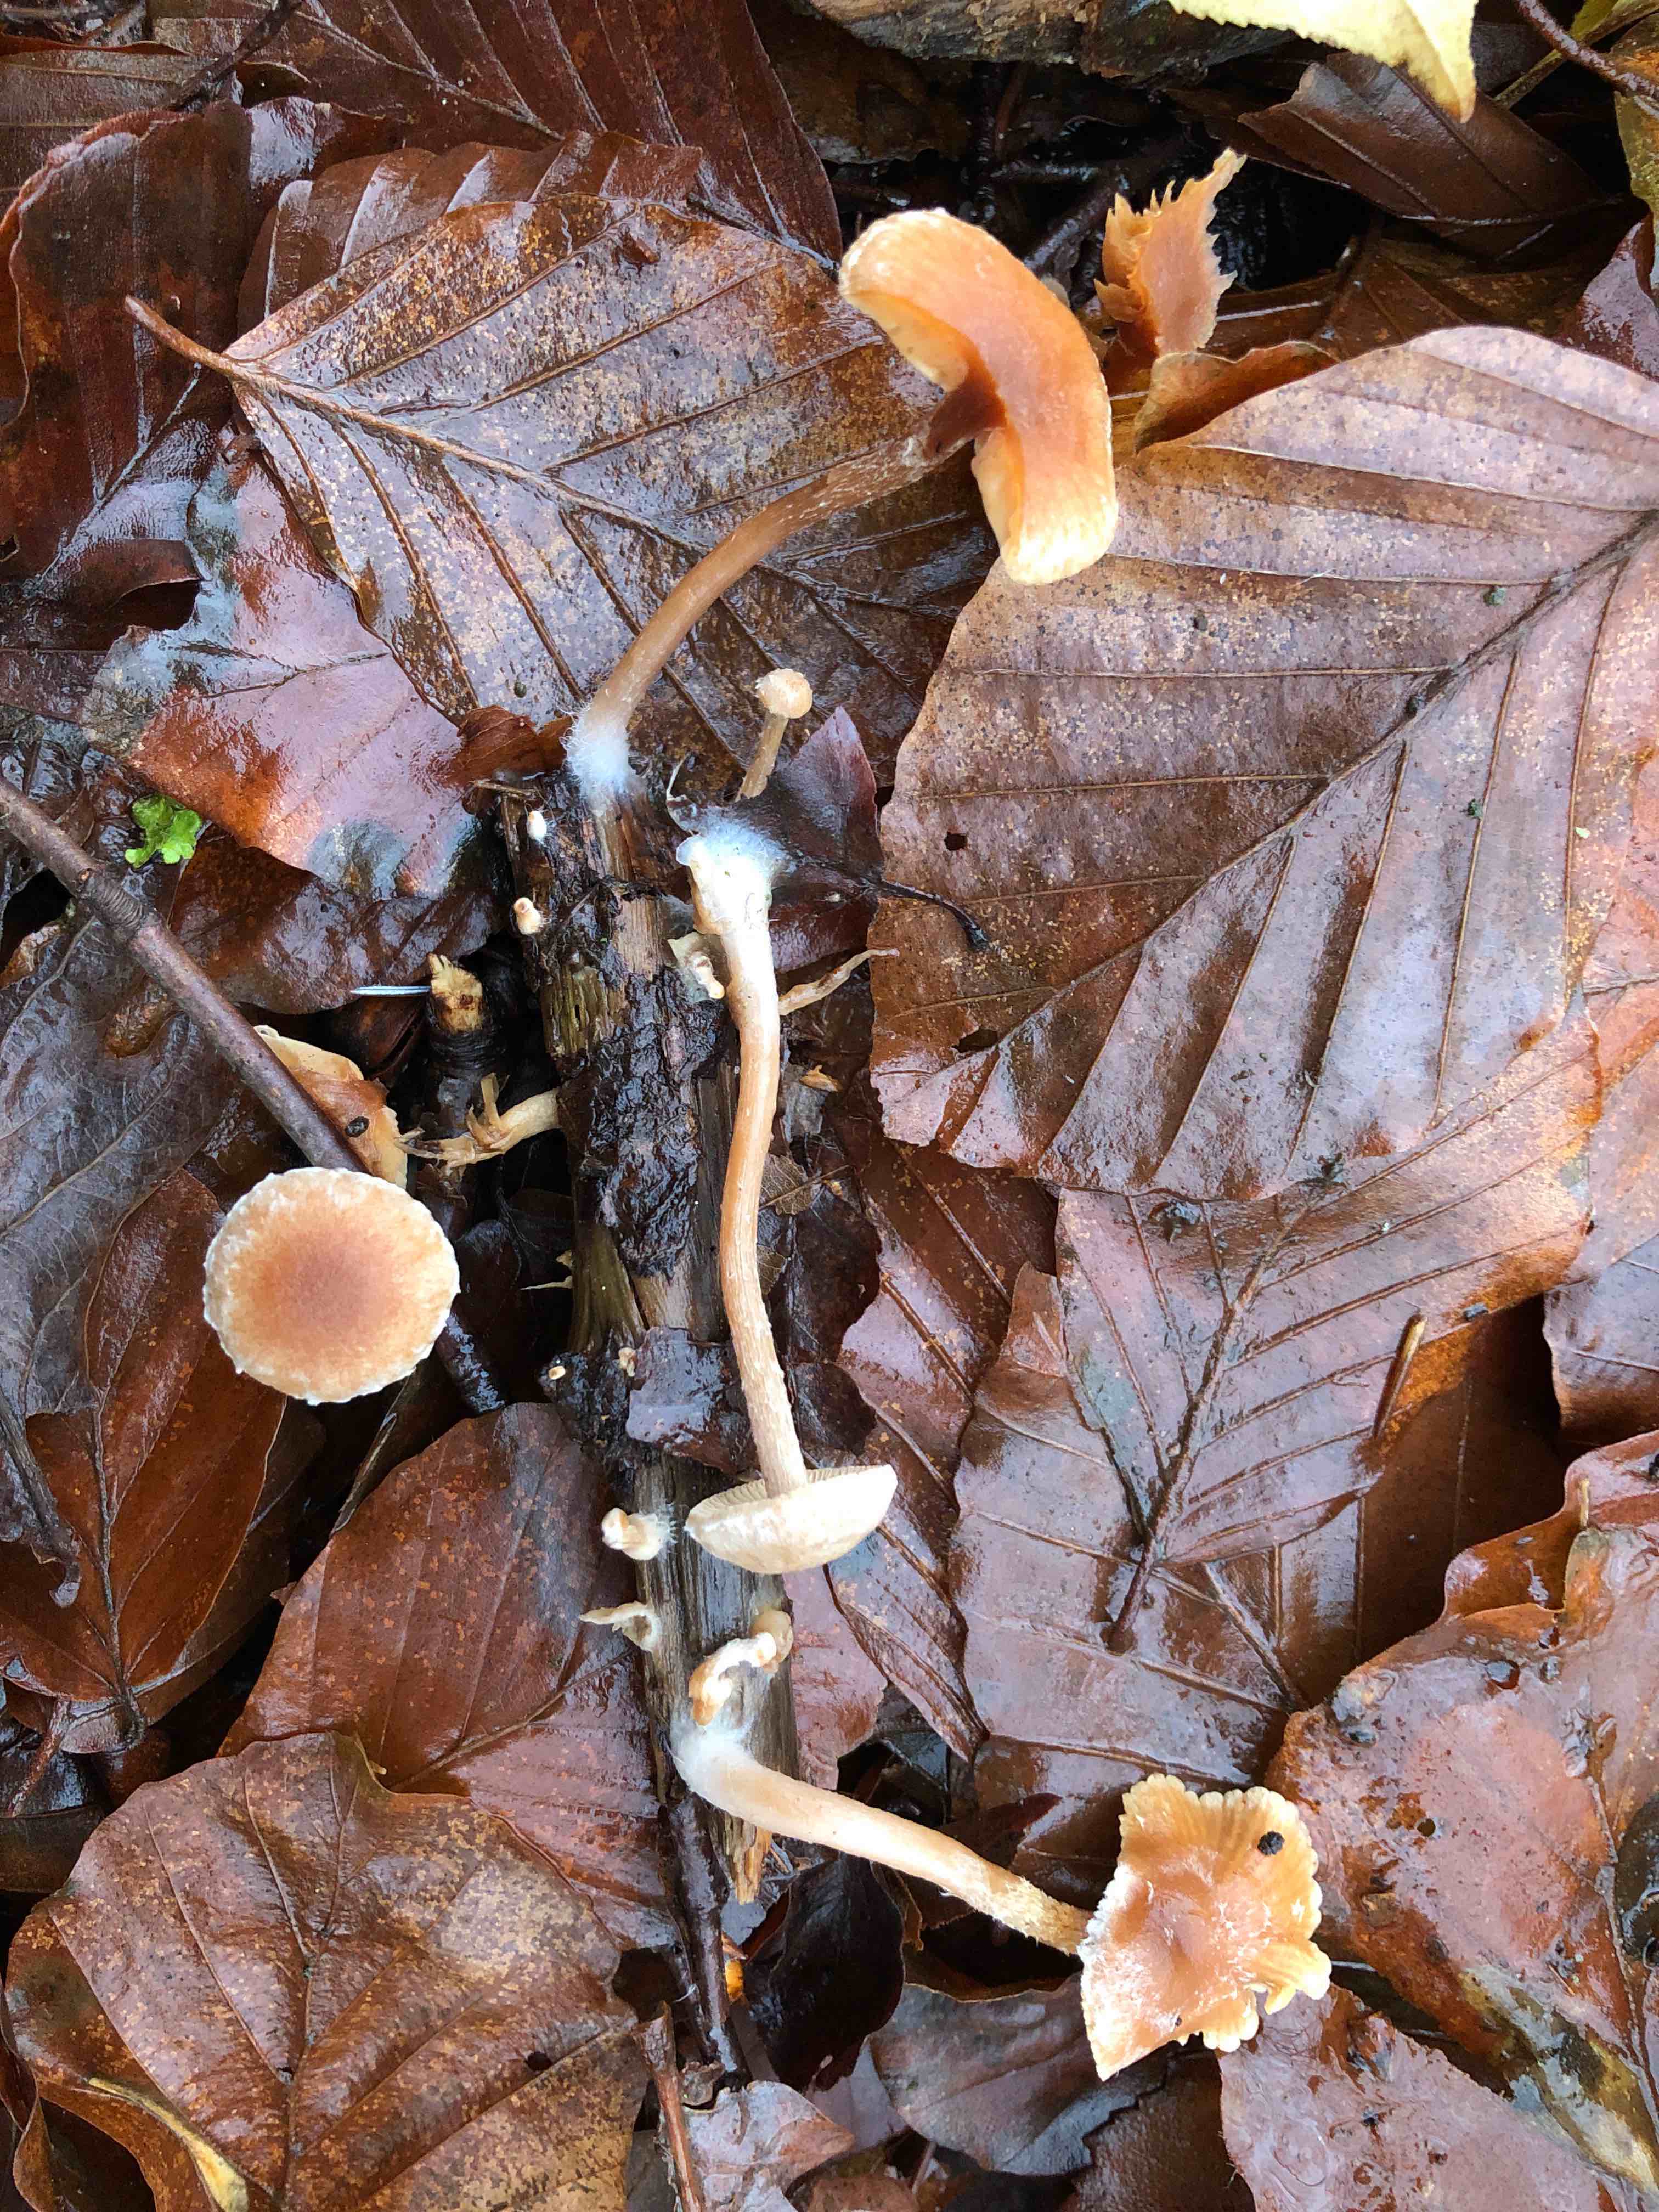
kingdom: Fungi
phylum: Basidiomycota
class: Agaricomycetes
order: Agaricales
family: Tubariaceae
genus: Tubaria
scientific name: Tubaria
